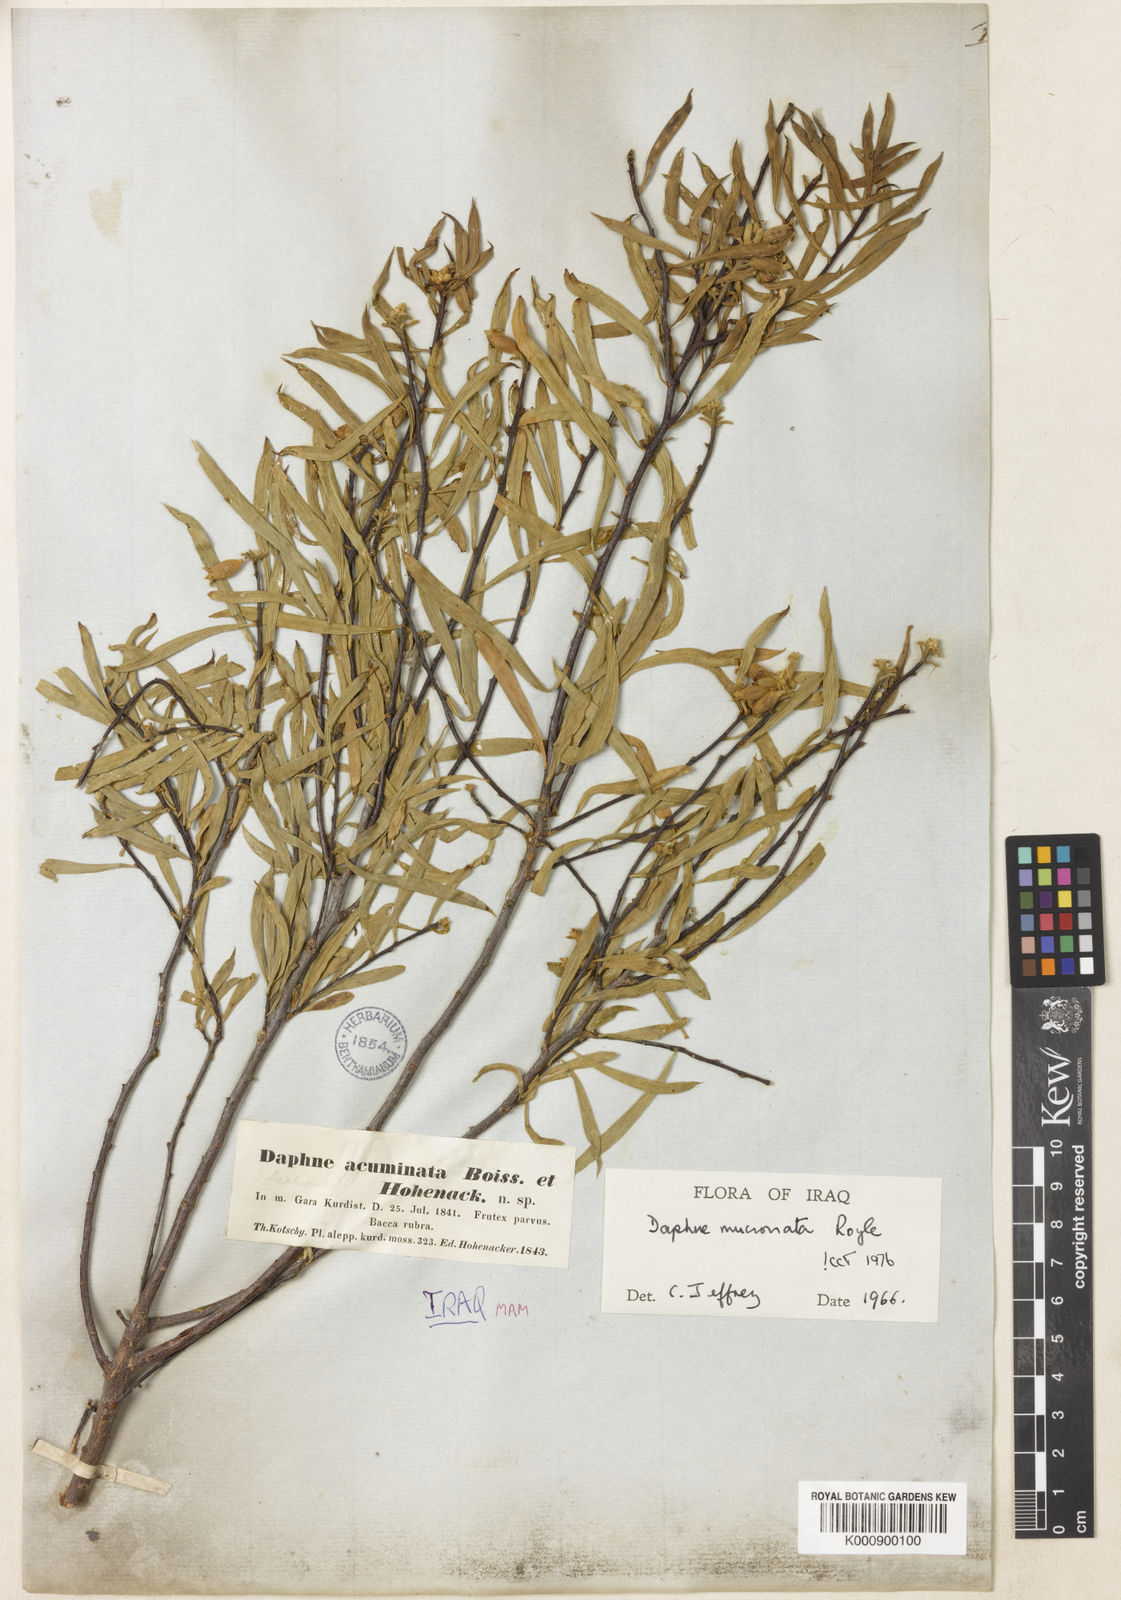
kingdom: Plantae
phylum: Tracheophyta
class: Magnoliopsida
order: Malvales
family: Thymelaeaceae
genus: Daphne
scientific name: Daphne
